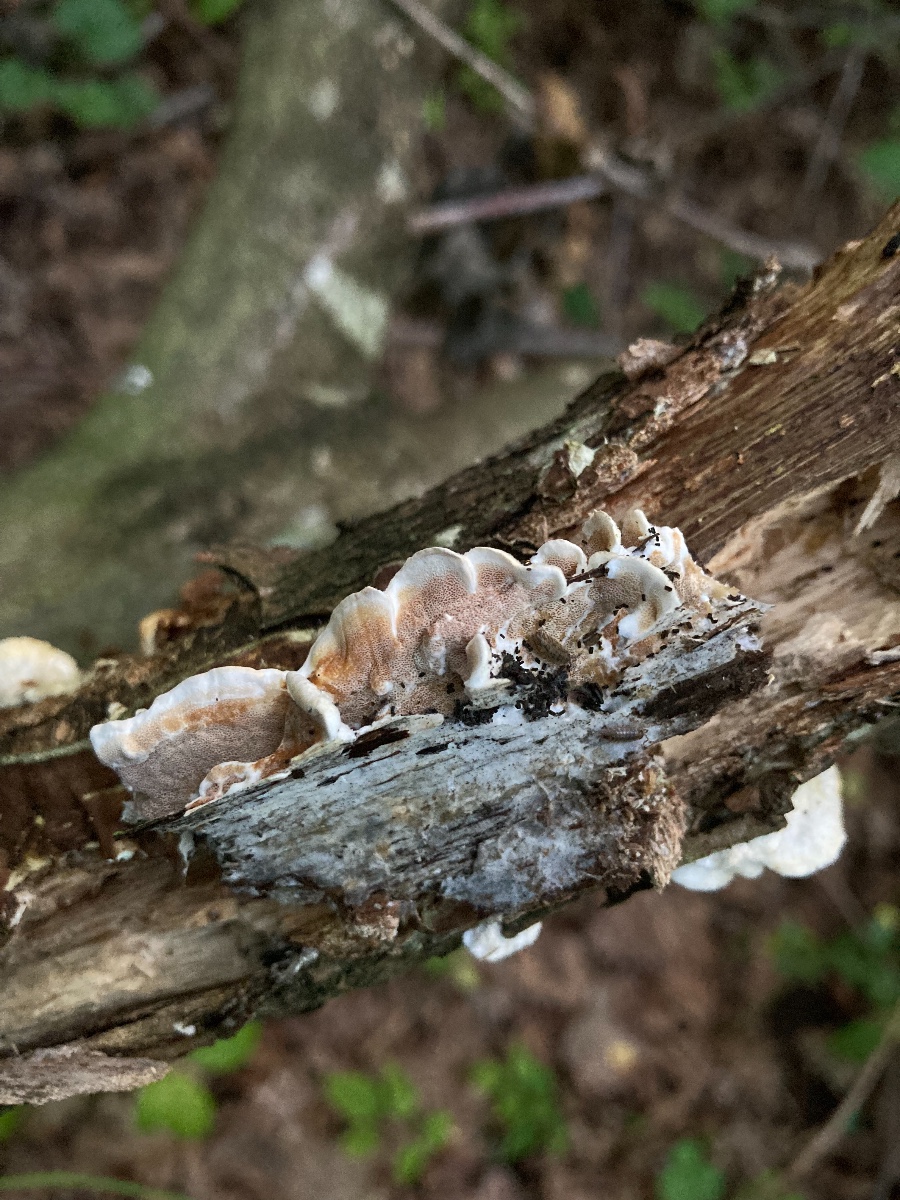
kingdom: Fungi
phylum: Basidiomycota
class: Agaricomycetes
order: Polyporales
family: Irpicaceae
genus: Vitreoporus
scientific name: Vitreoporus dichrous
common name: tofarvet foldporesvamp
